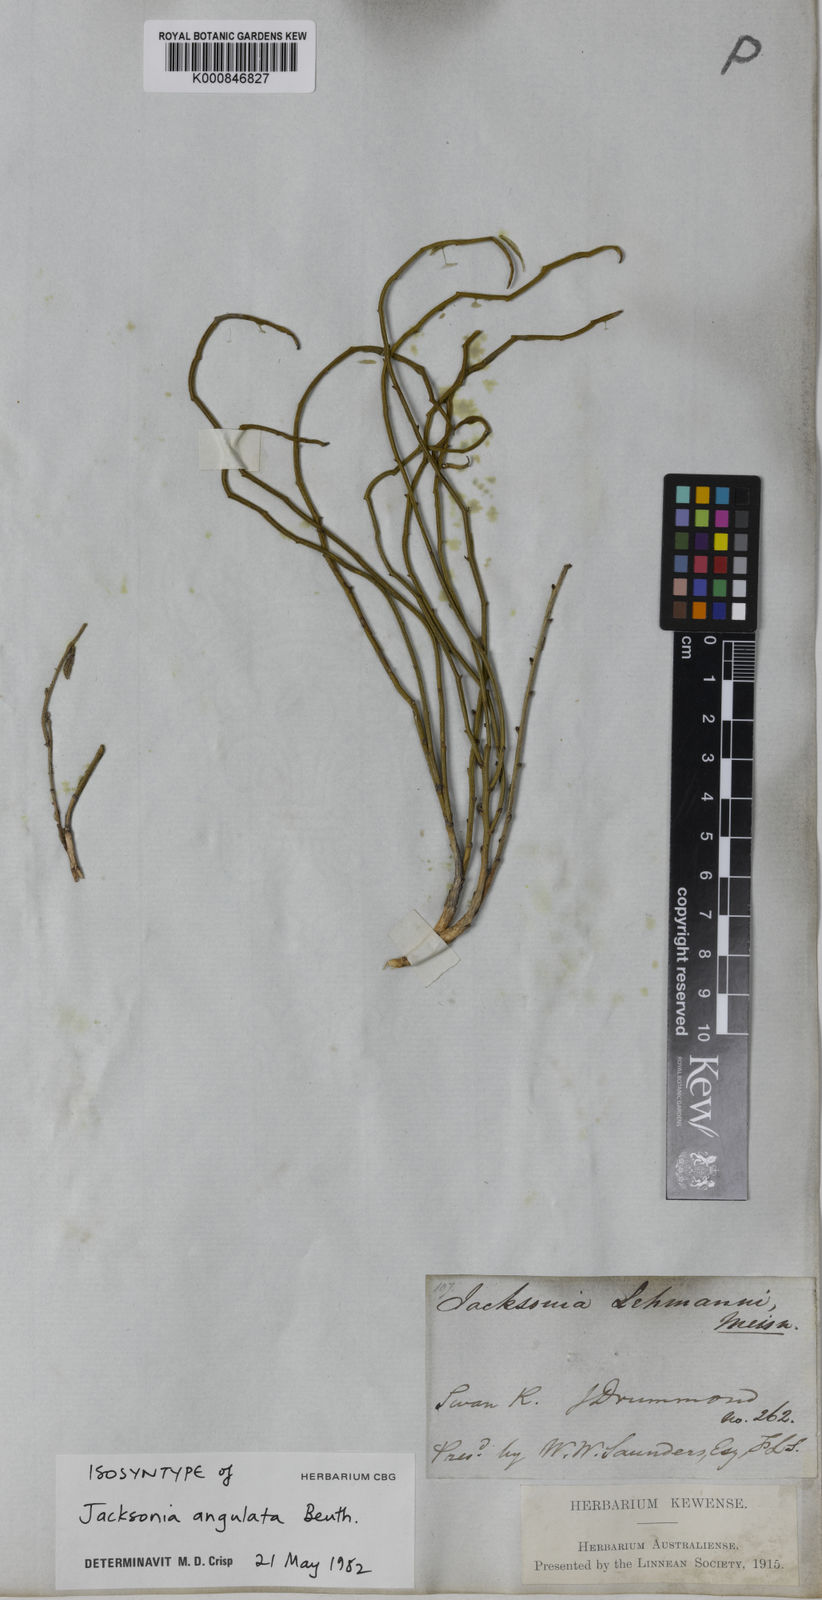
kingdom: Plantae
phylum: Tracheophyta
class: Magnoliopsida
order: Fabales
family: Fabaceae
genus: Jacksonia
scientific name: Jacksonia angulata
